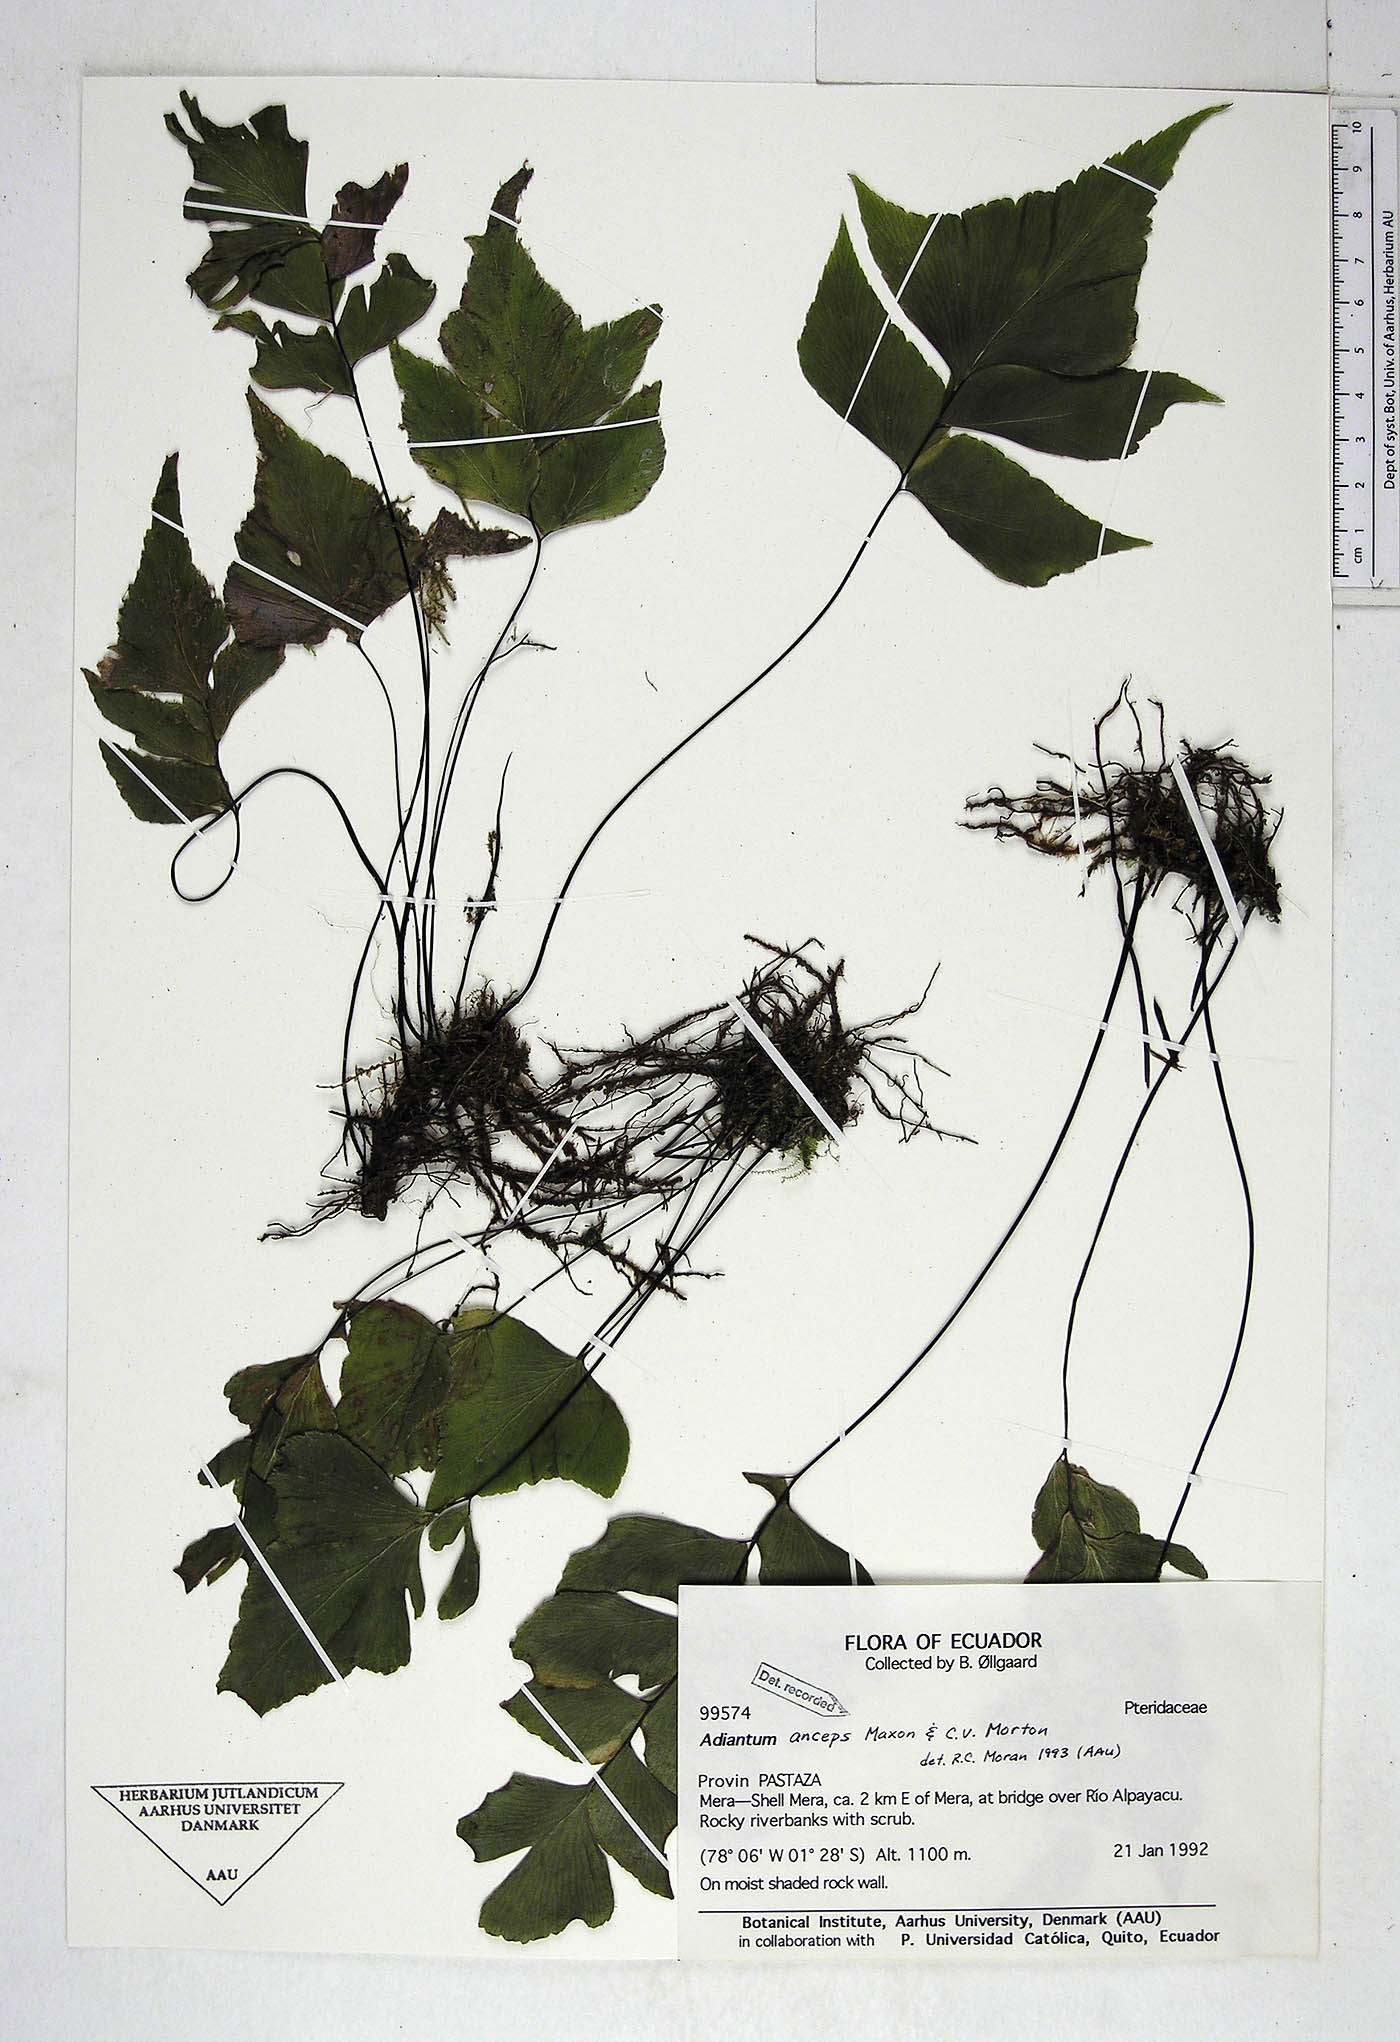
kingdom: Plantae
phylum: Tracheophyta
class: Polypodiopsida
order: Polypodiales
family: Pteridaceae
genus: Adiantum
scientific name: Adiantum mariposatum
